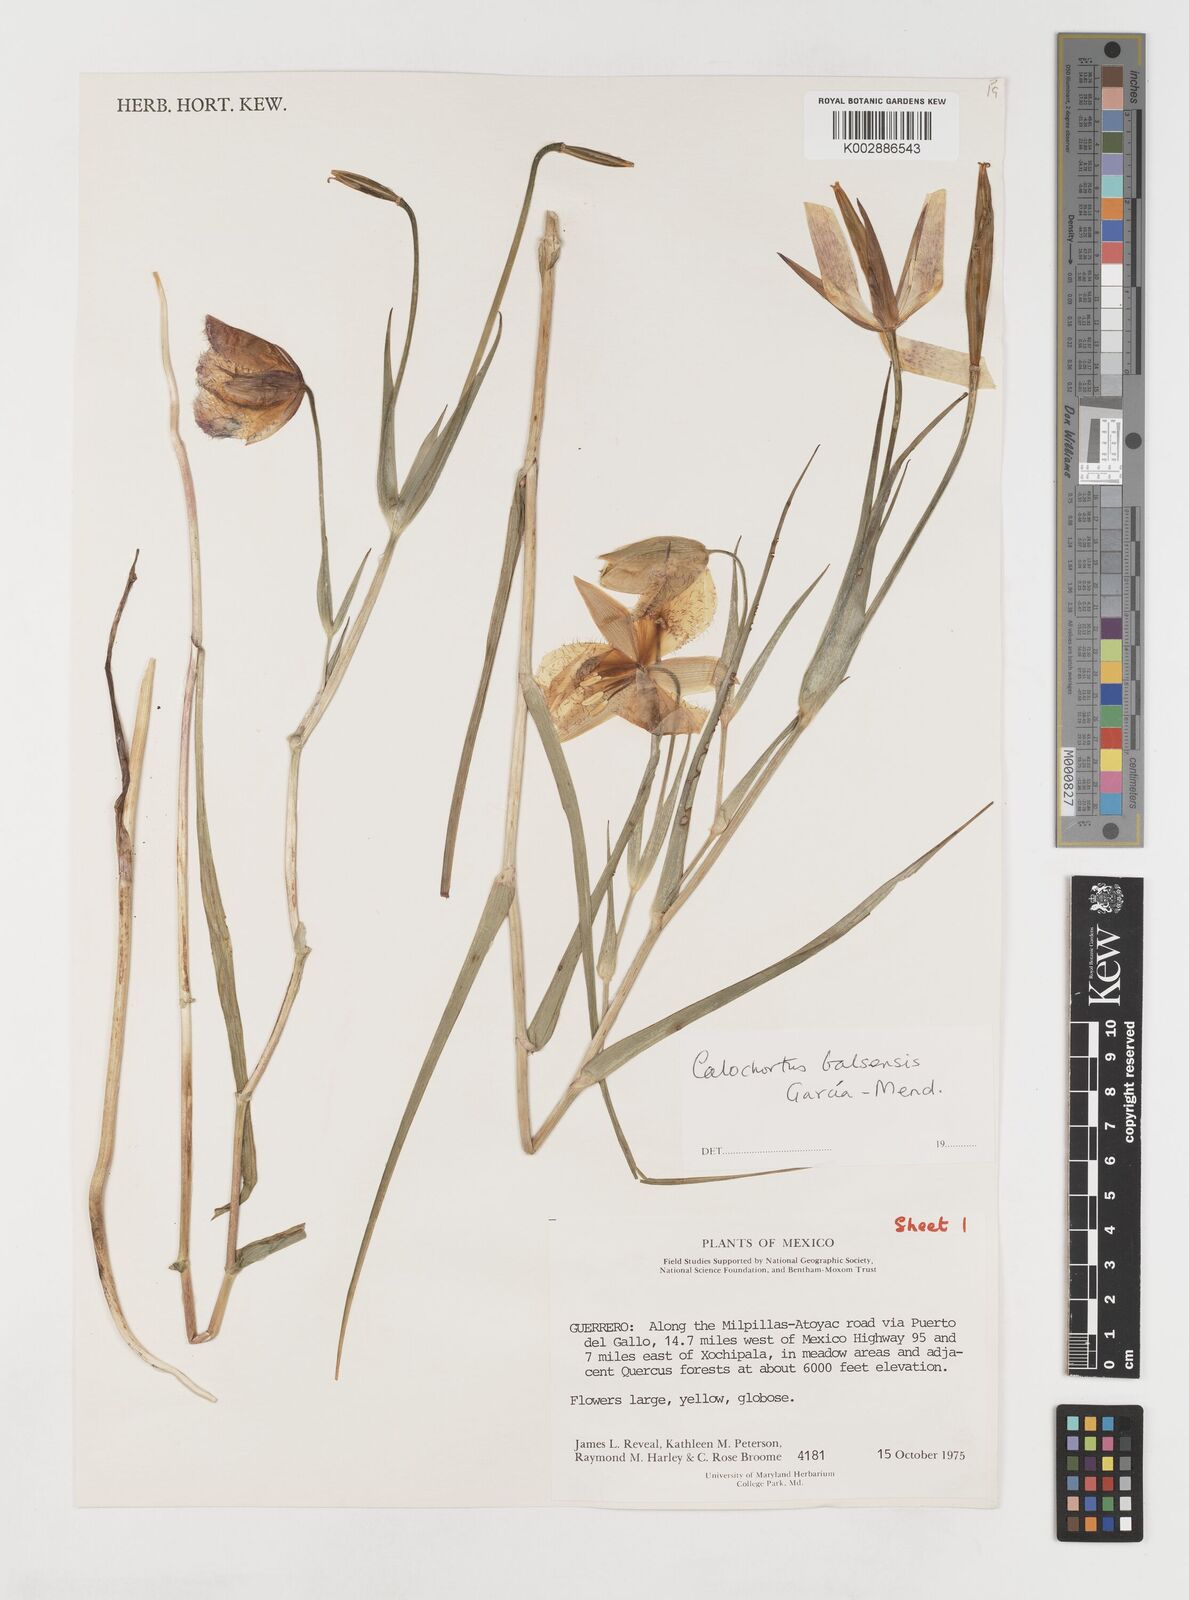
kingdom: Plantae
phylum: Tracheophyta
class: Liliopsida
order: Liliales
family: Liliaceae
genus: Calochortus
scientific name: Calochortus balsensis
